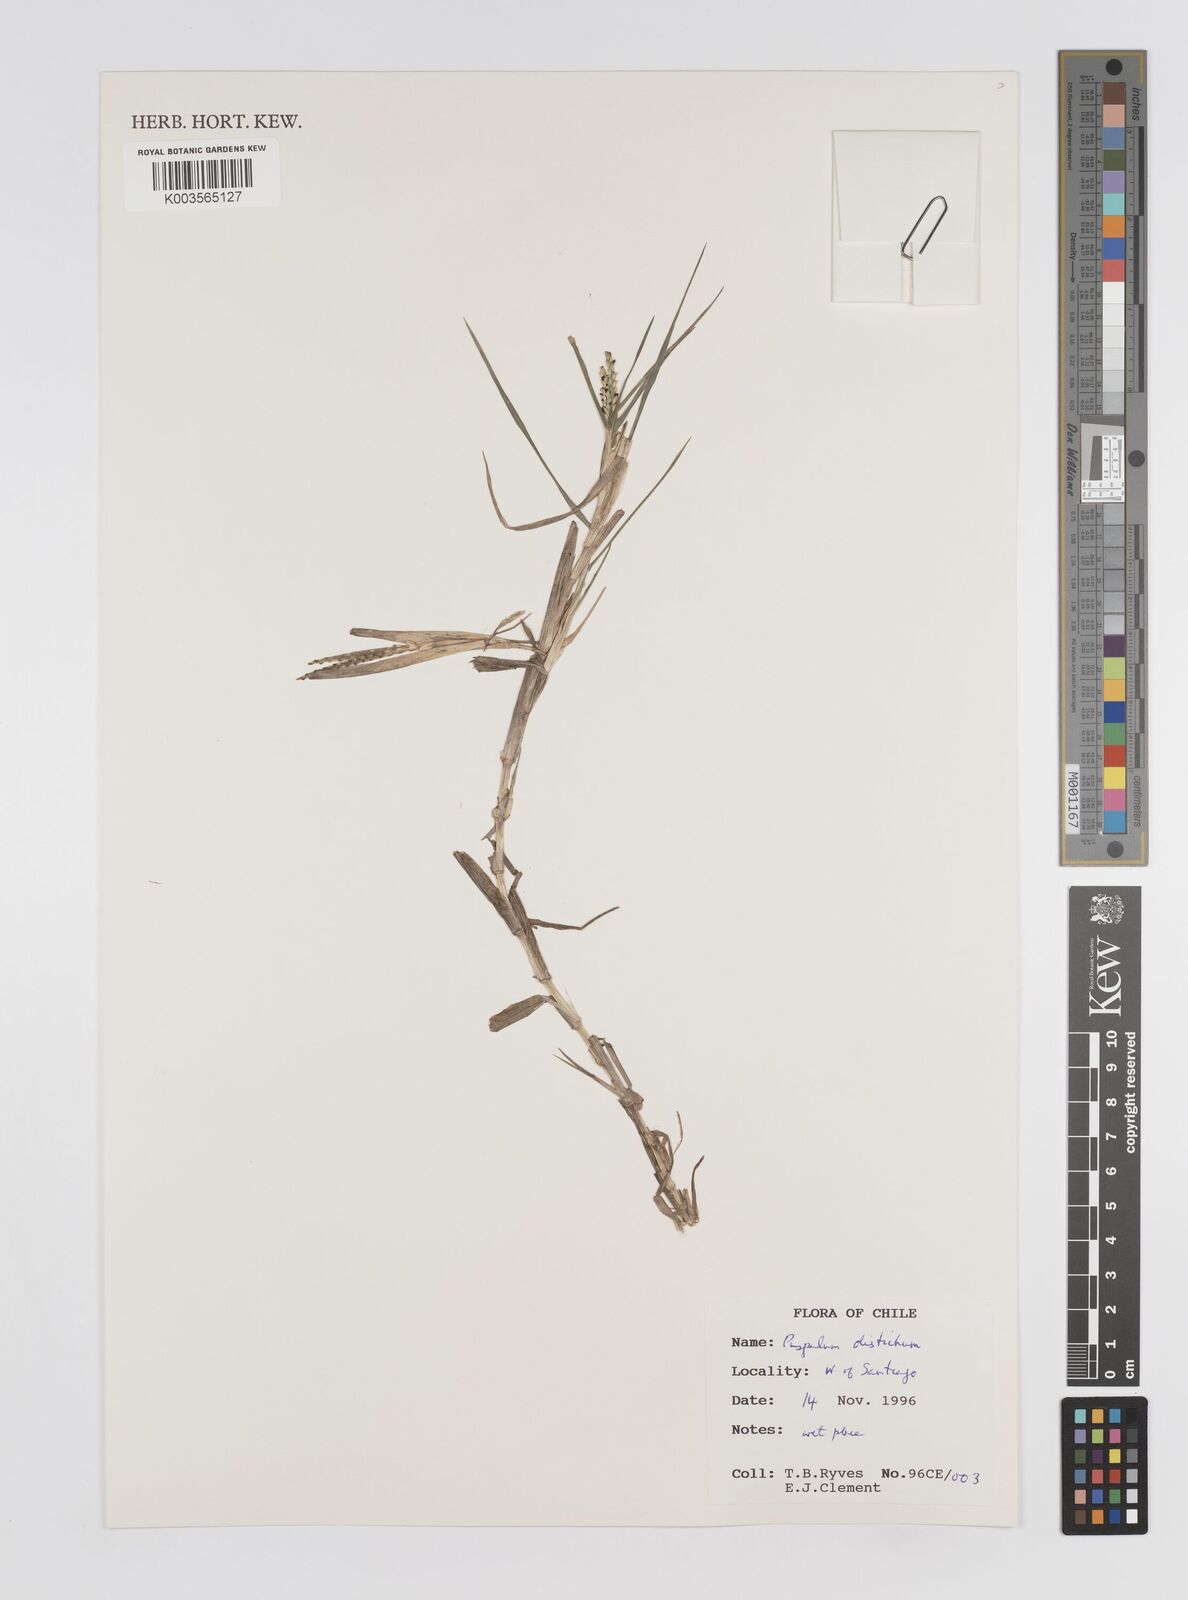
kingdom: Plantae
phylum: Tracheophyta
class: Liliopsida
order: Poales
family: Poaceae
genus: Paspalum
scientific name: Paspalum distichum
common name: Knotgrass
